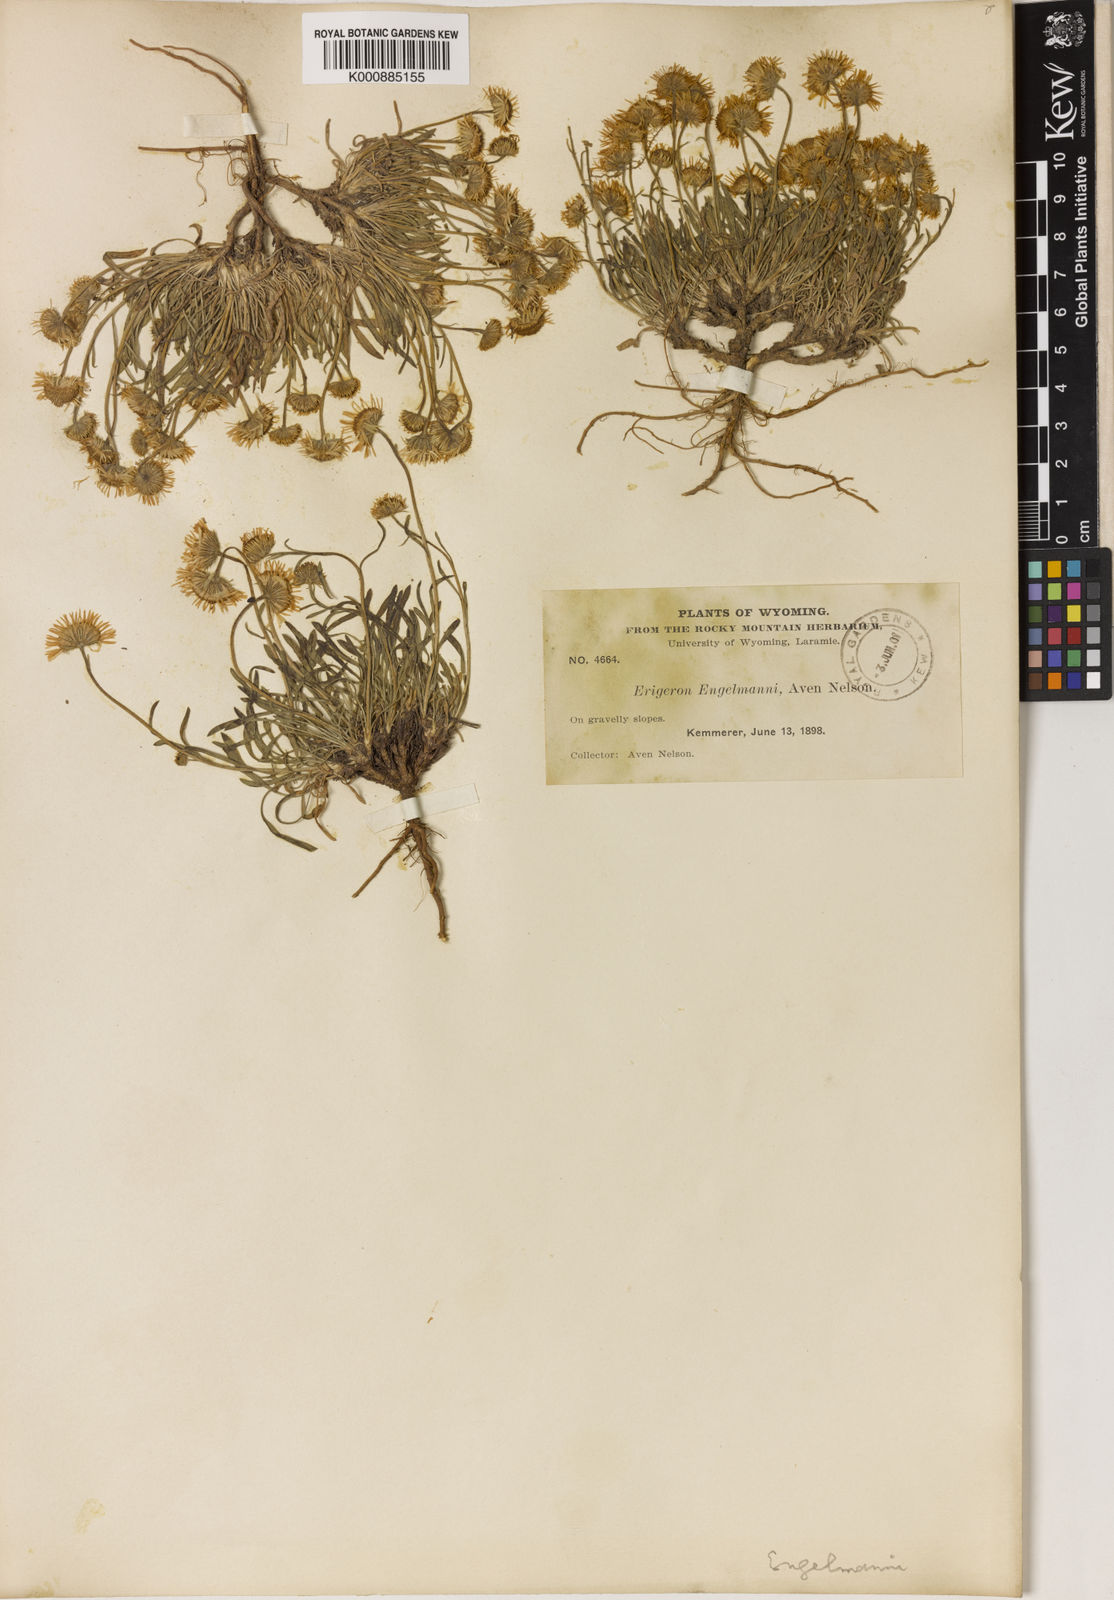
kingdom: Plantae
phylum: Tracheophyta
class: Magnoliopsida
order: Asterales
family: Asteraceae
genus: Erigeron
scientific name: Erigeron
